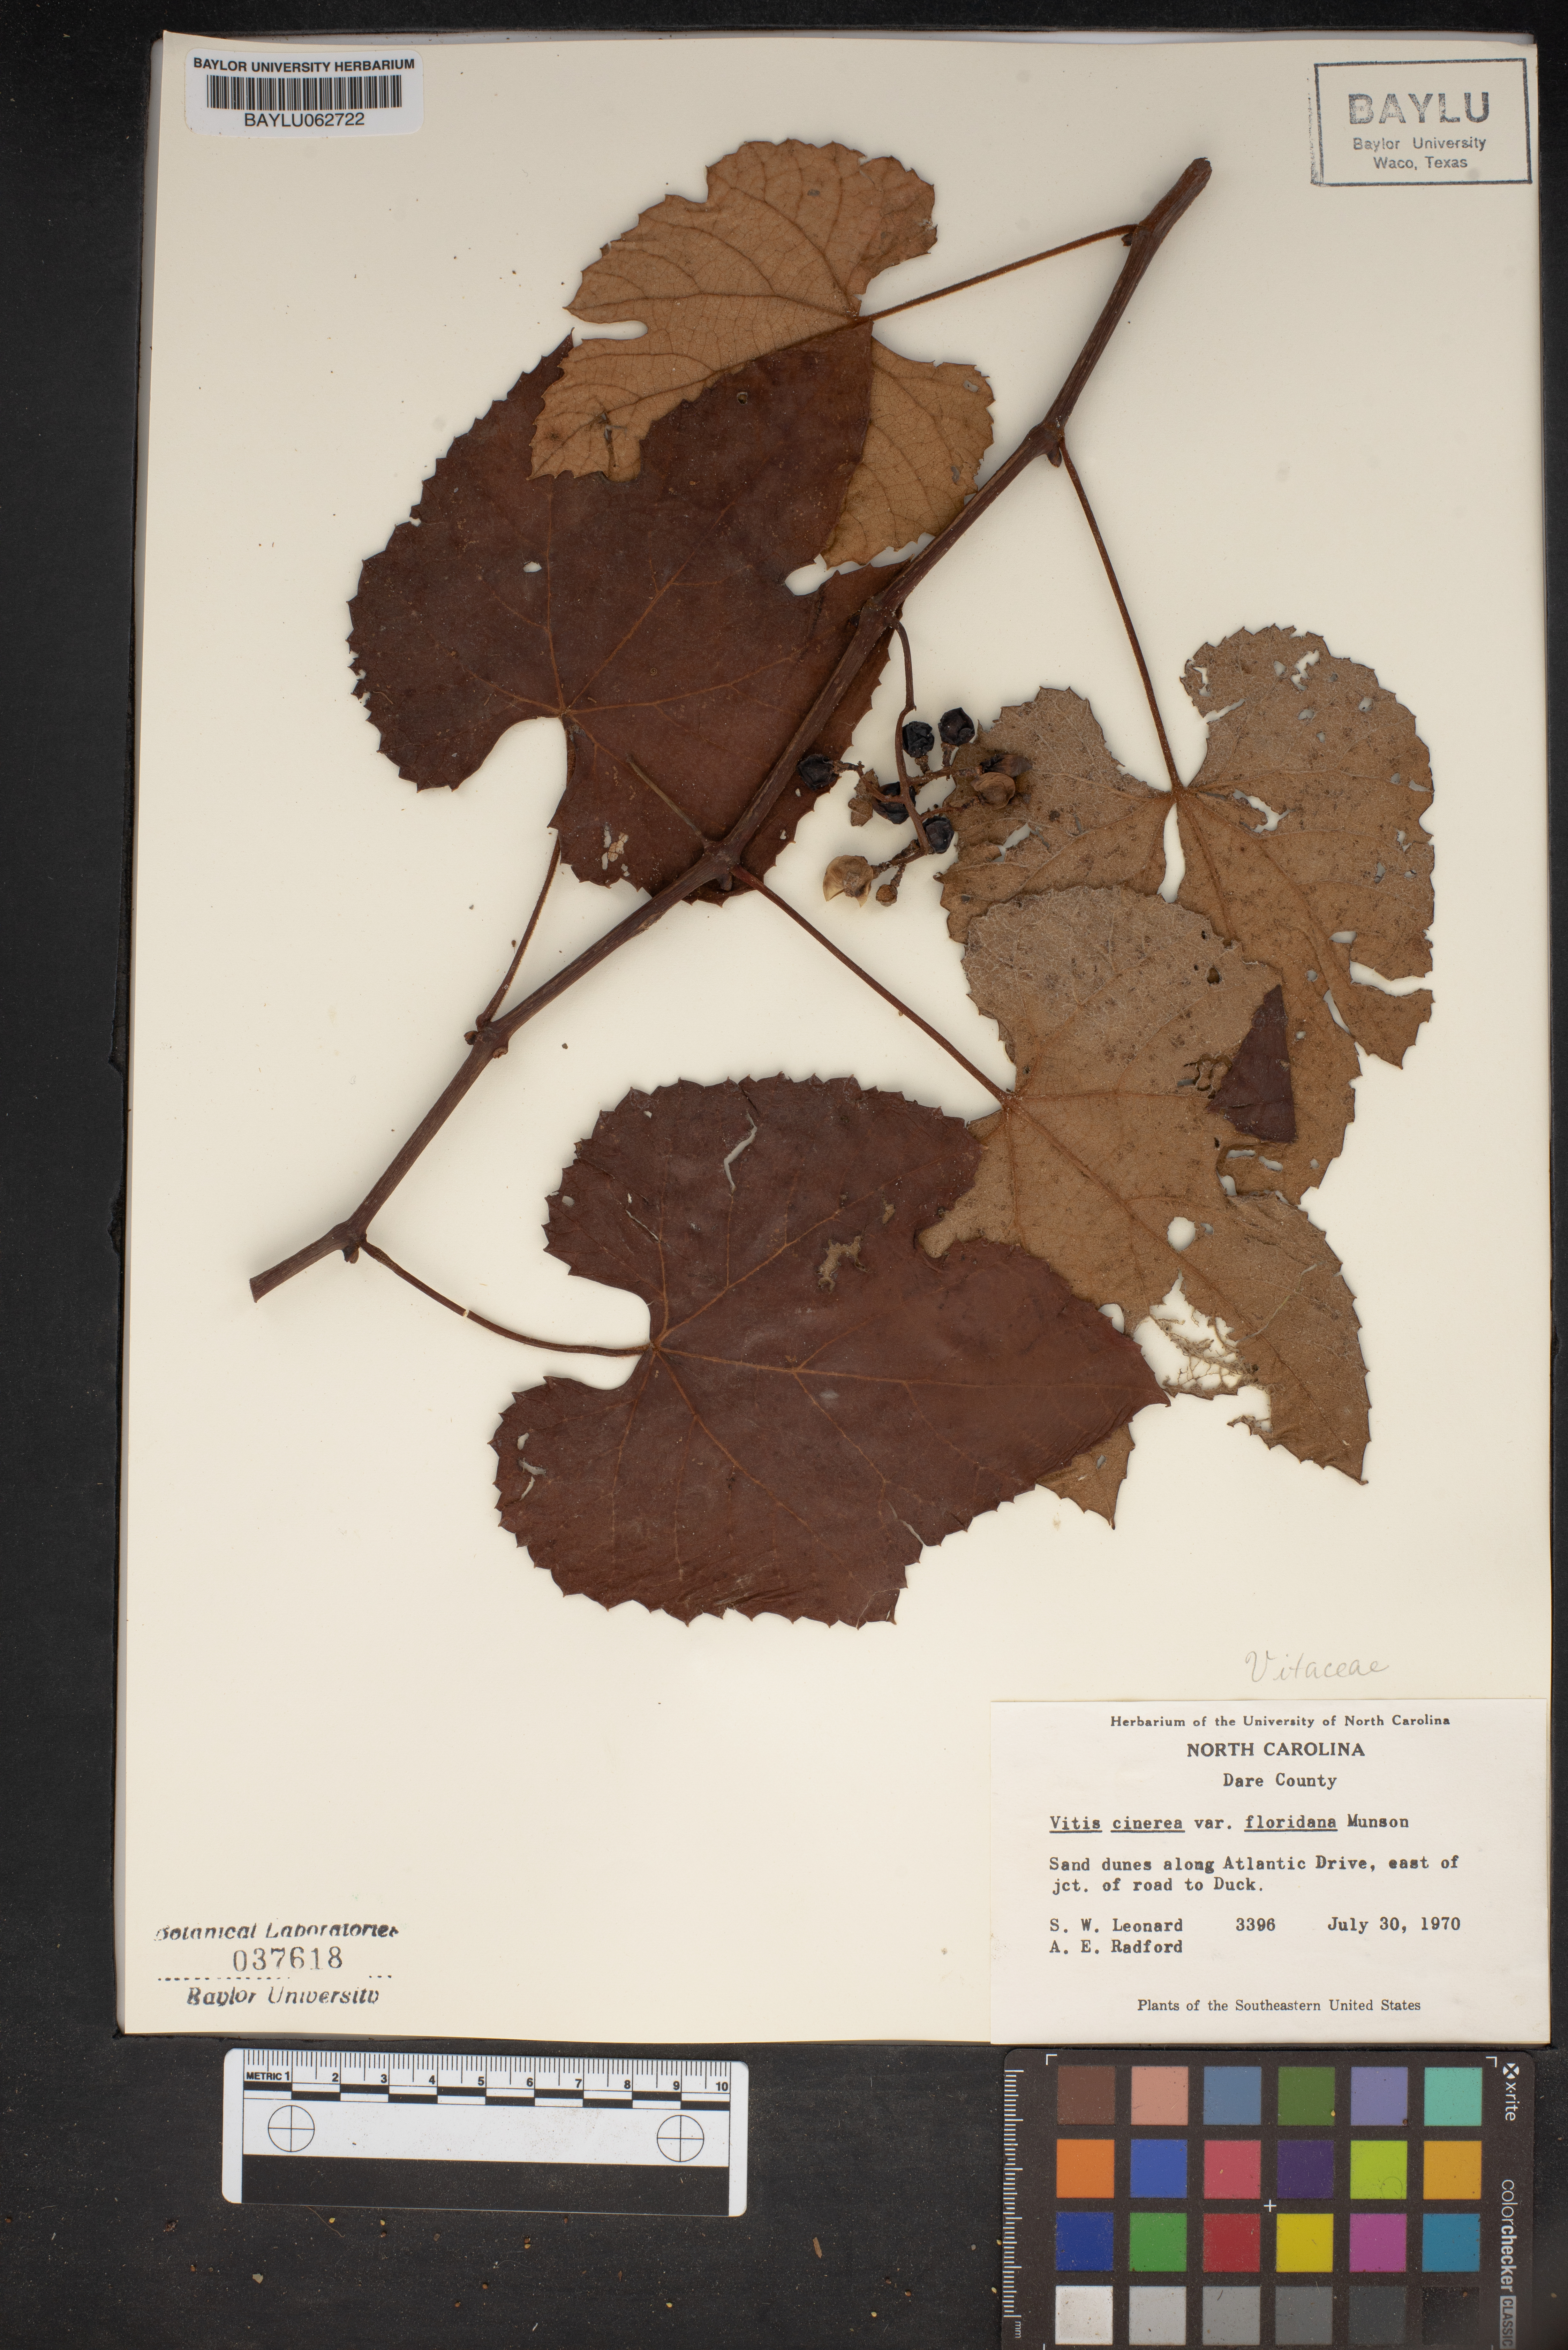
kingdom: Plantae
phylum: Tracheophyta
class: Magnoliopsida
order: Vitales
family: Vitaceae
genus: Vitis
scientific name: Vitis cinerea
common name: Ashy grape
